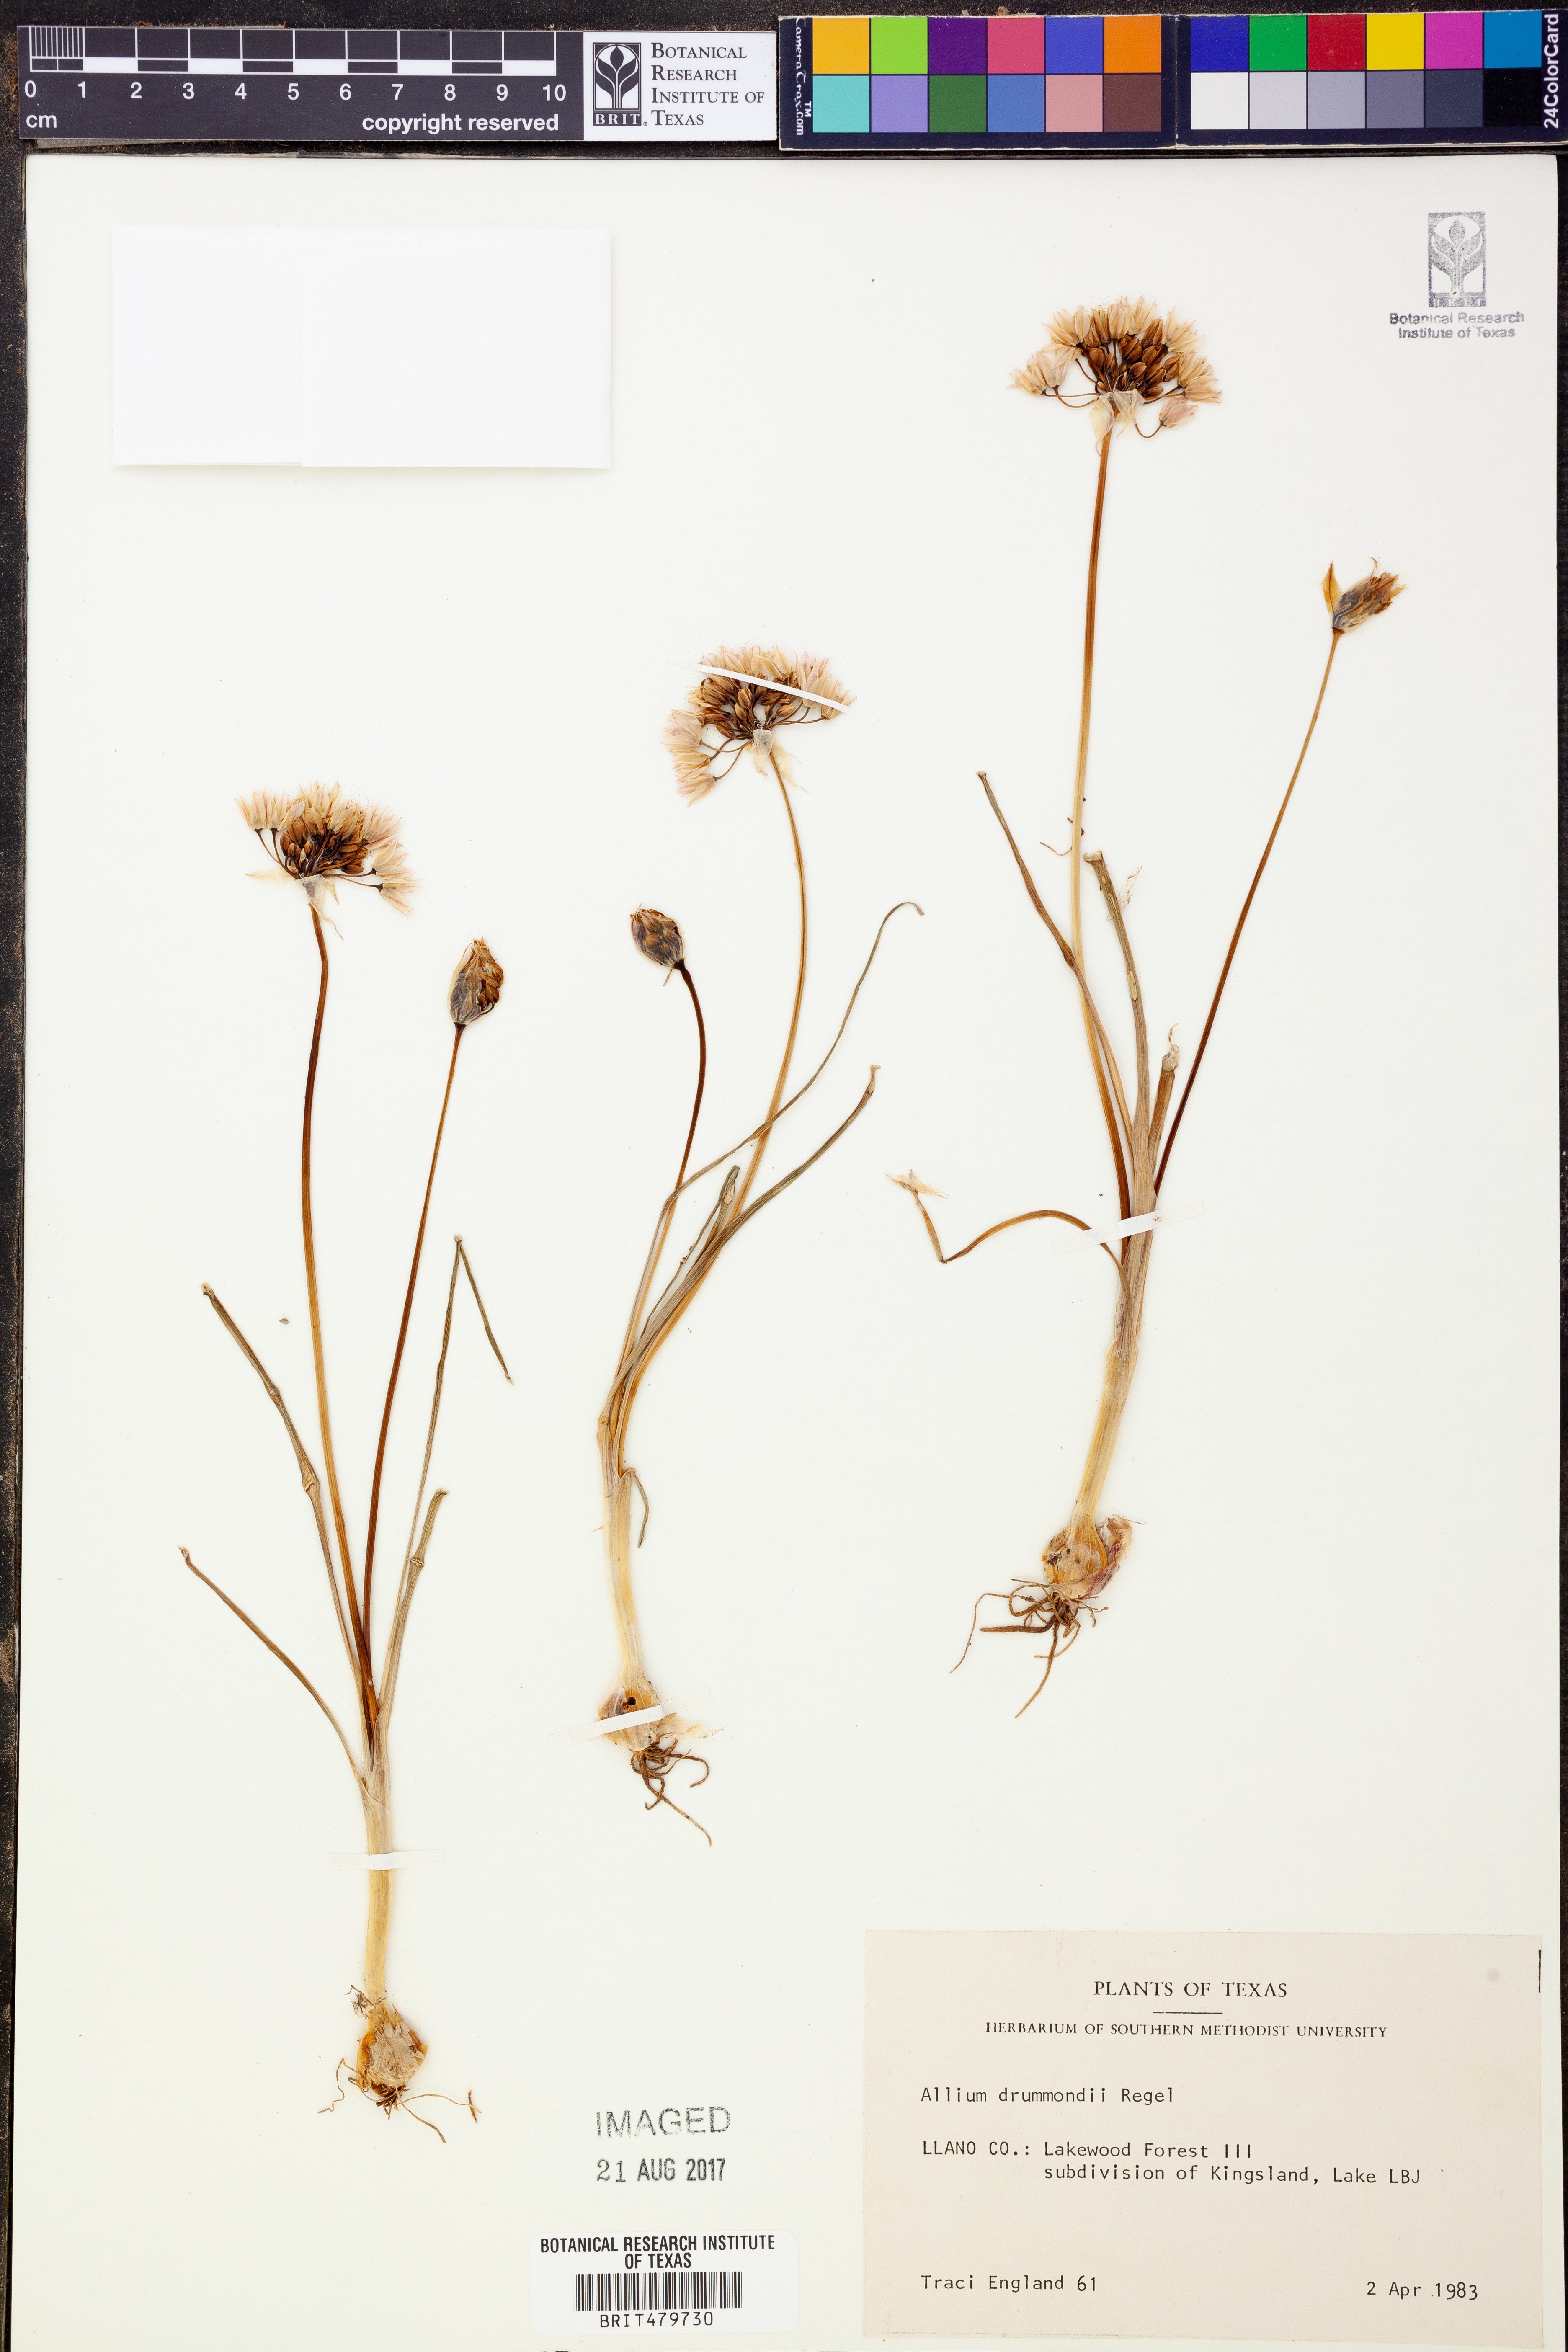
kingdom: Plantae
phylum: Tracheophyta
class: Liliopsida
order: Asparagales
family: Amaryllidaceae
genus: Allium
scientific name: Allium drummondii
